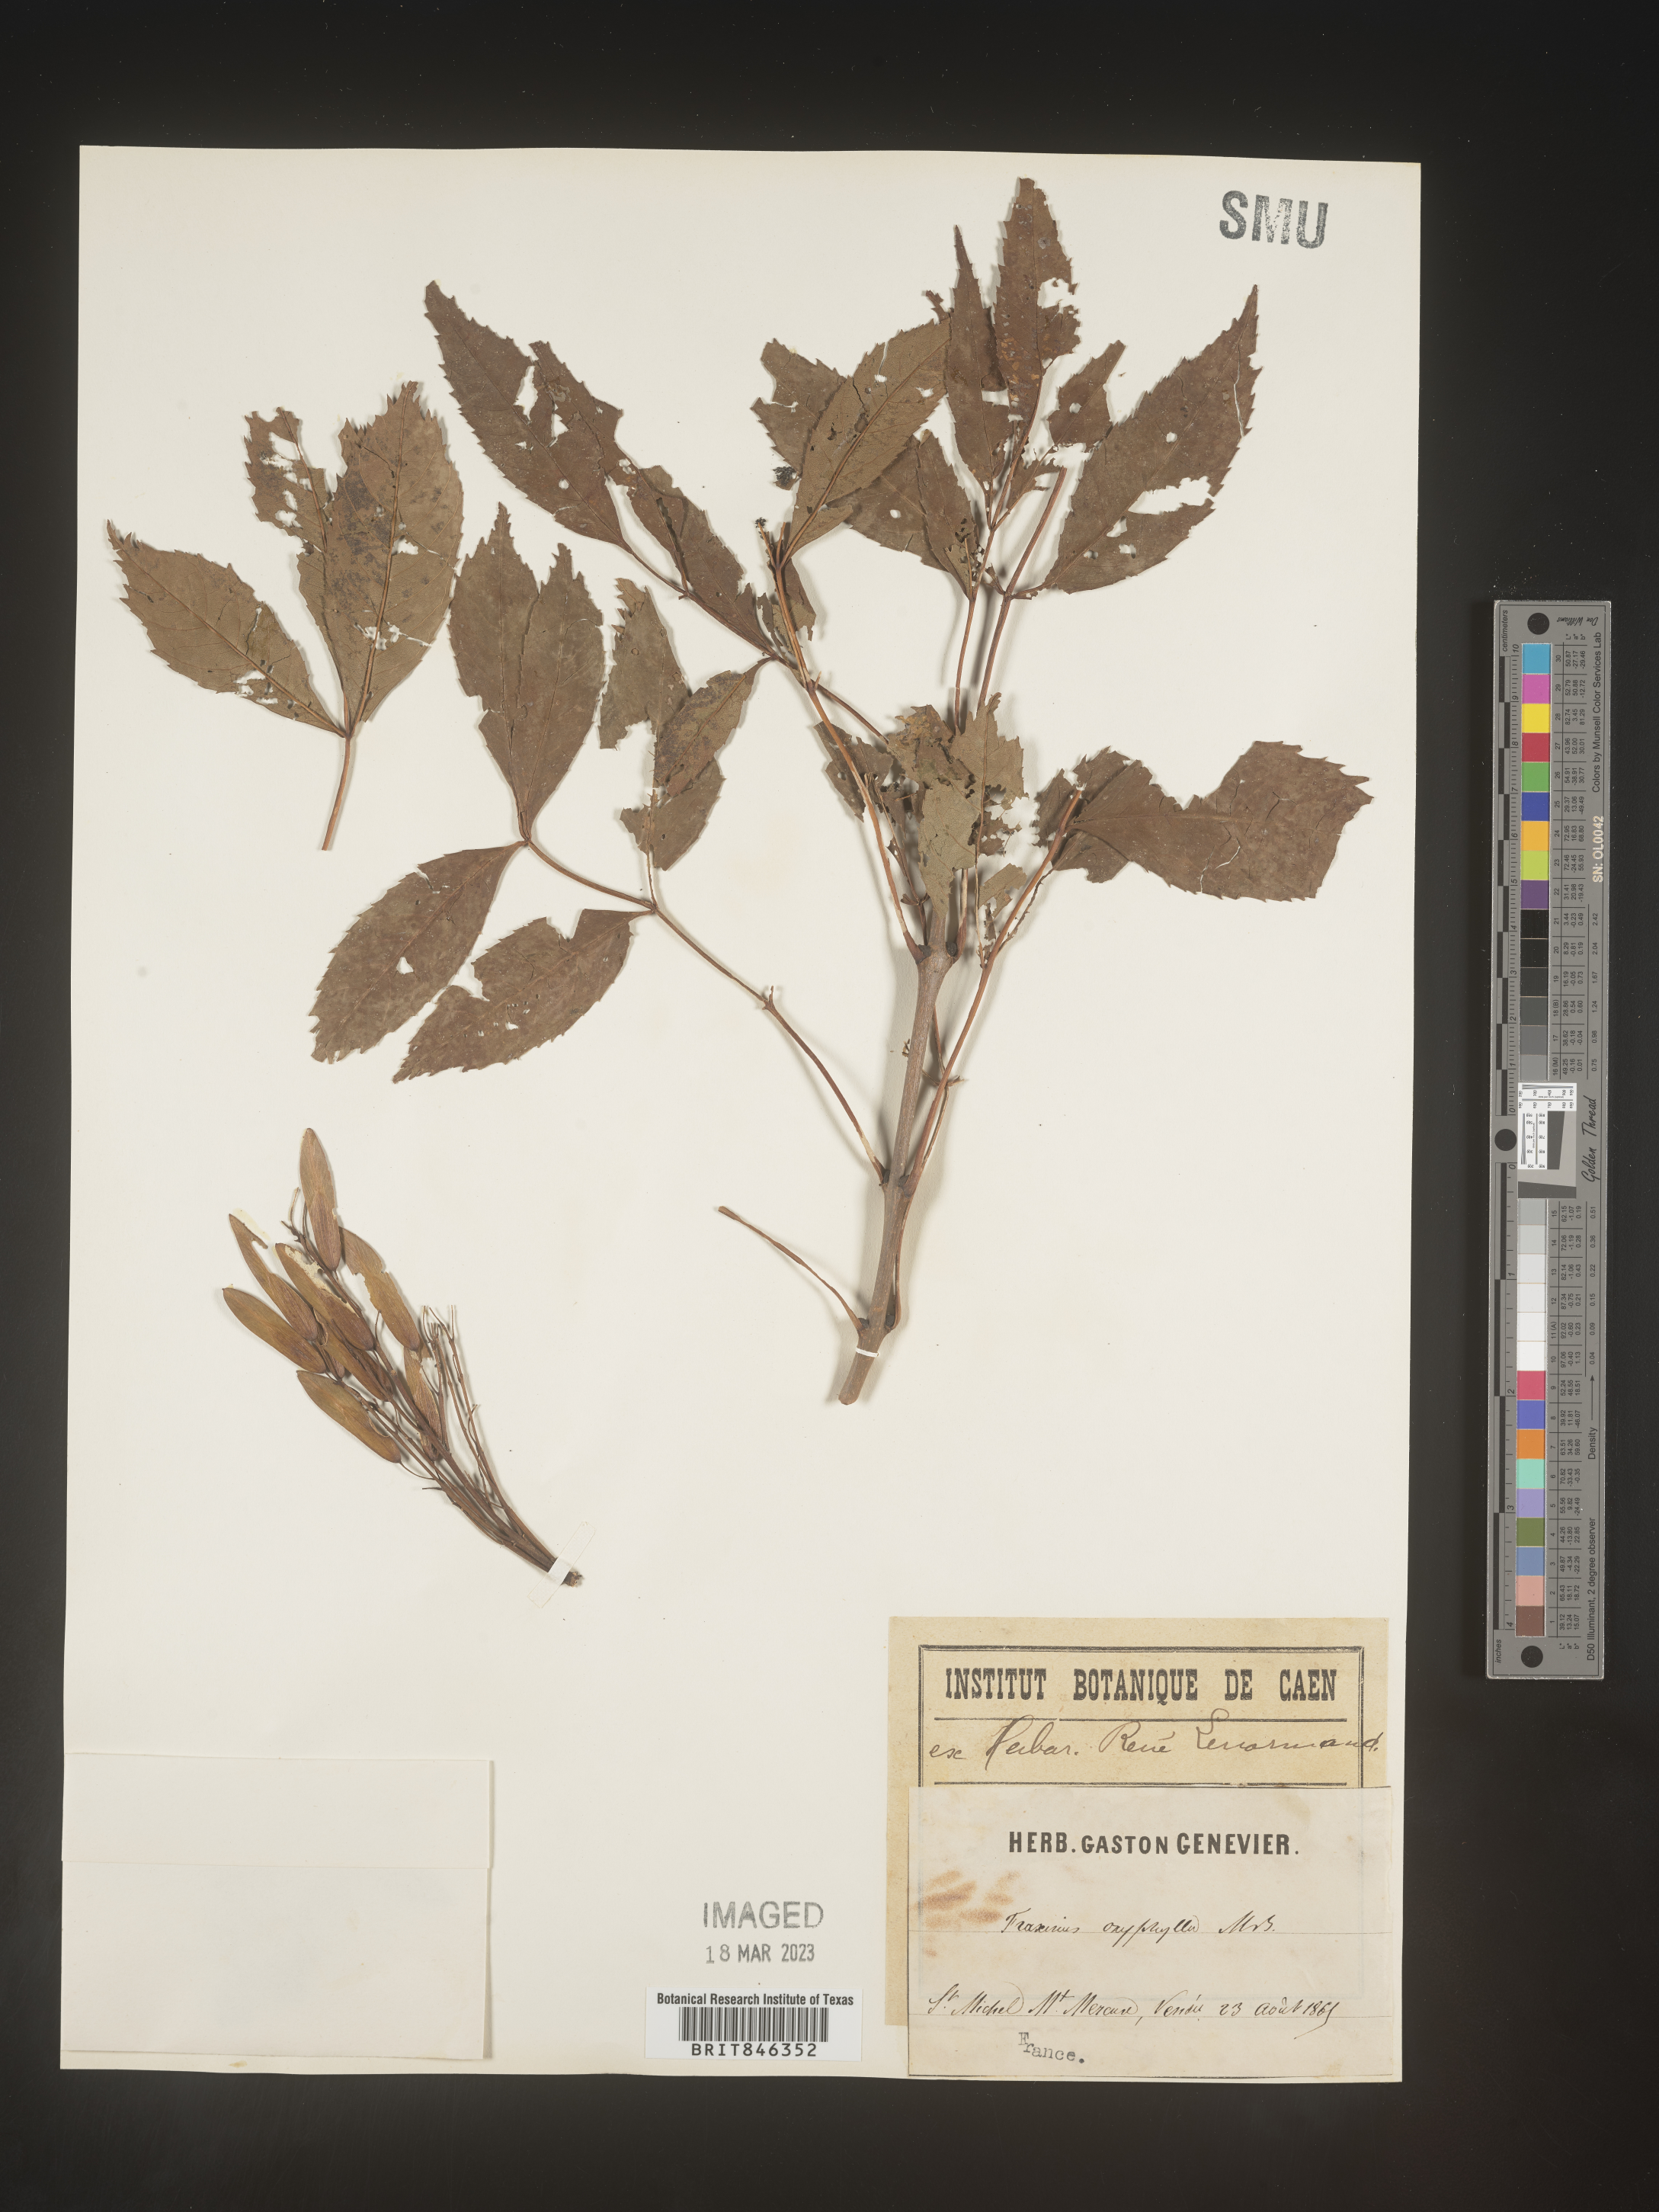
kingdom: Plantae
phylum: Tracheophyta
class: Magnoliopsida
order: Lamiales
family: Oleaceae
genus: Fraxinus
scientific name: Fraxinus
